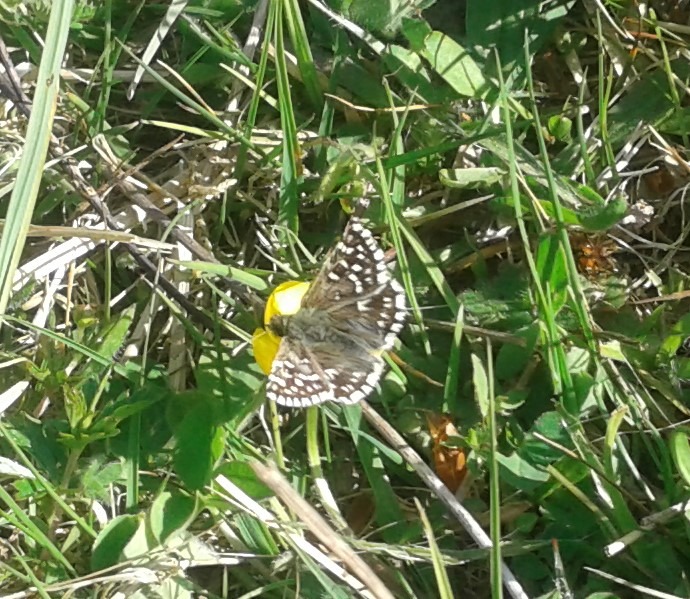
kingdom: Animalia
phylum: Arthropoda
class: Insecta
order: Lepidoptera
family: Hesperiidae
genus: Pyrgus
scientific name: Pyrgus malvae
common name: Spættet bredpande
